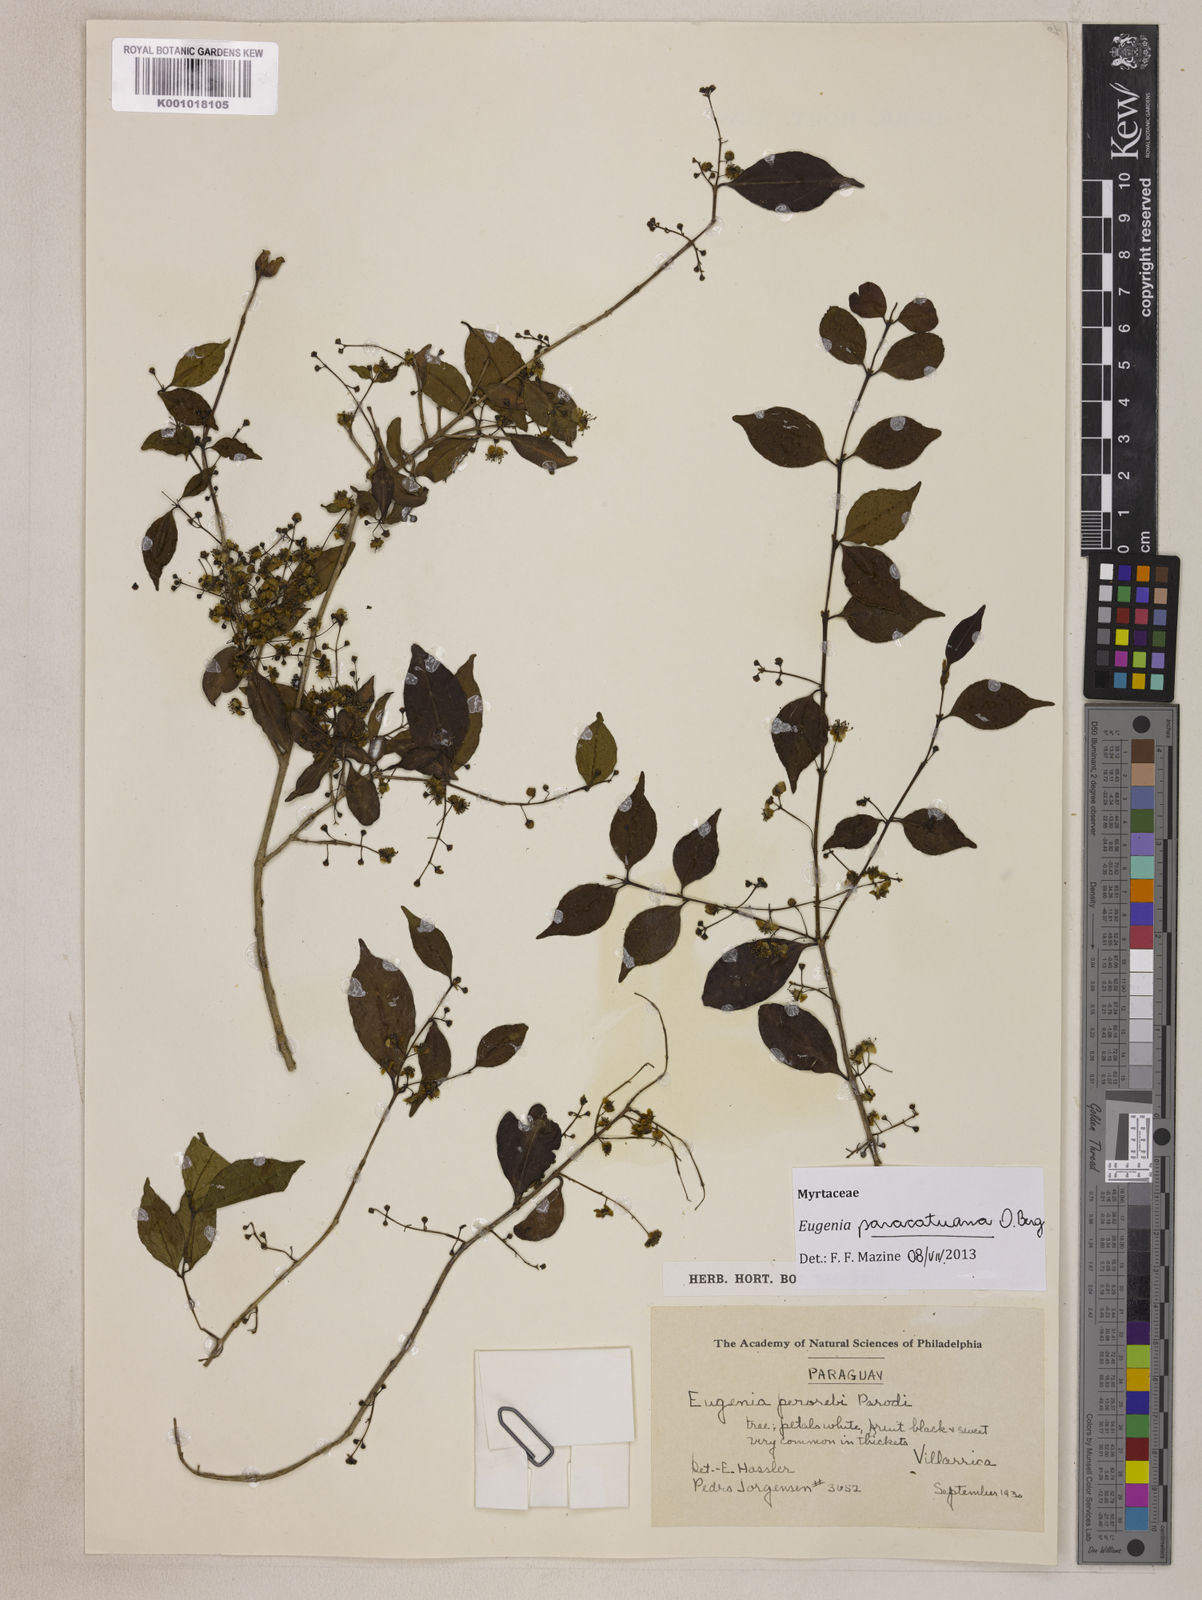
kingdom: Plantae
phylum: Tracheophyta
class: Magnoliopsida
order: Myrtales
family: Myrtaceae
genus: Eugenia
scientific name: Eugenia moraviana
